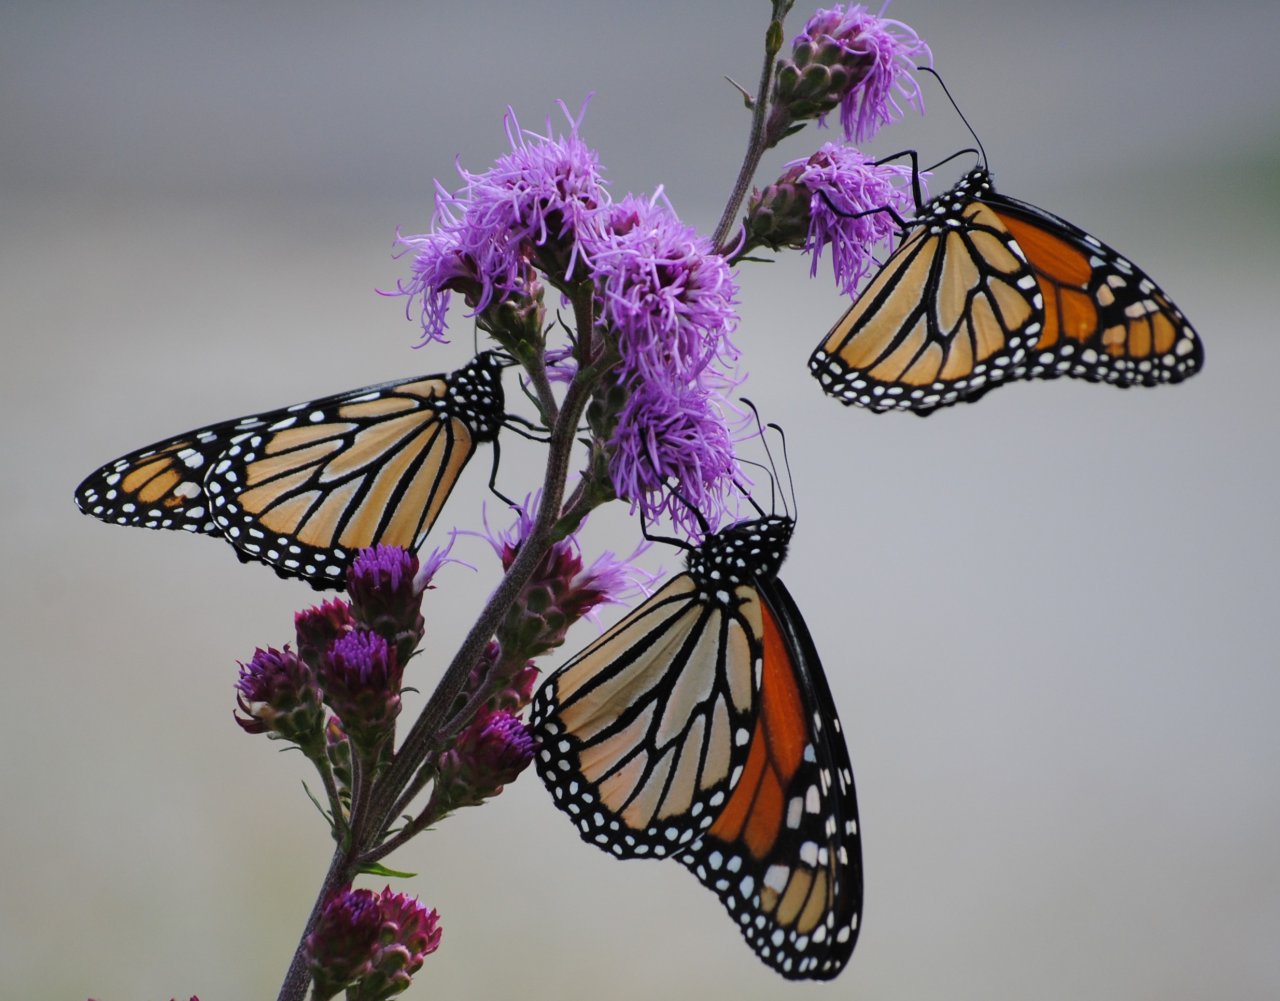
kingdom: Animalia
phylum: Arthropoda
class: Insecta
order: Lepidoptera
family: Nymphalidae
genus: Danaus
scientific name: Danaus plexippus
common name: Monarch
